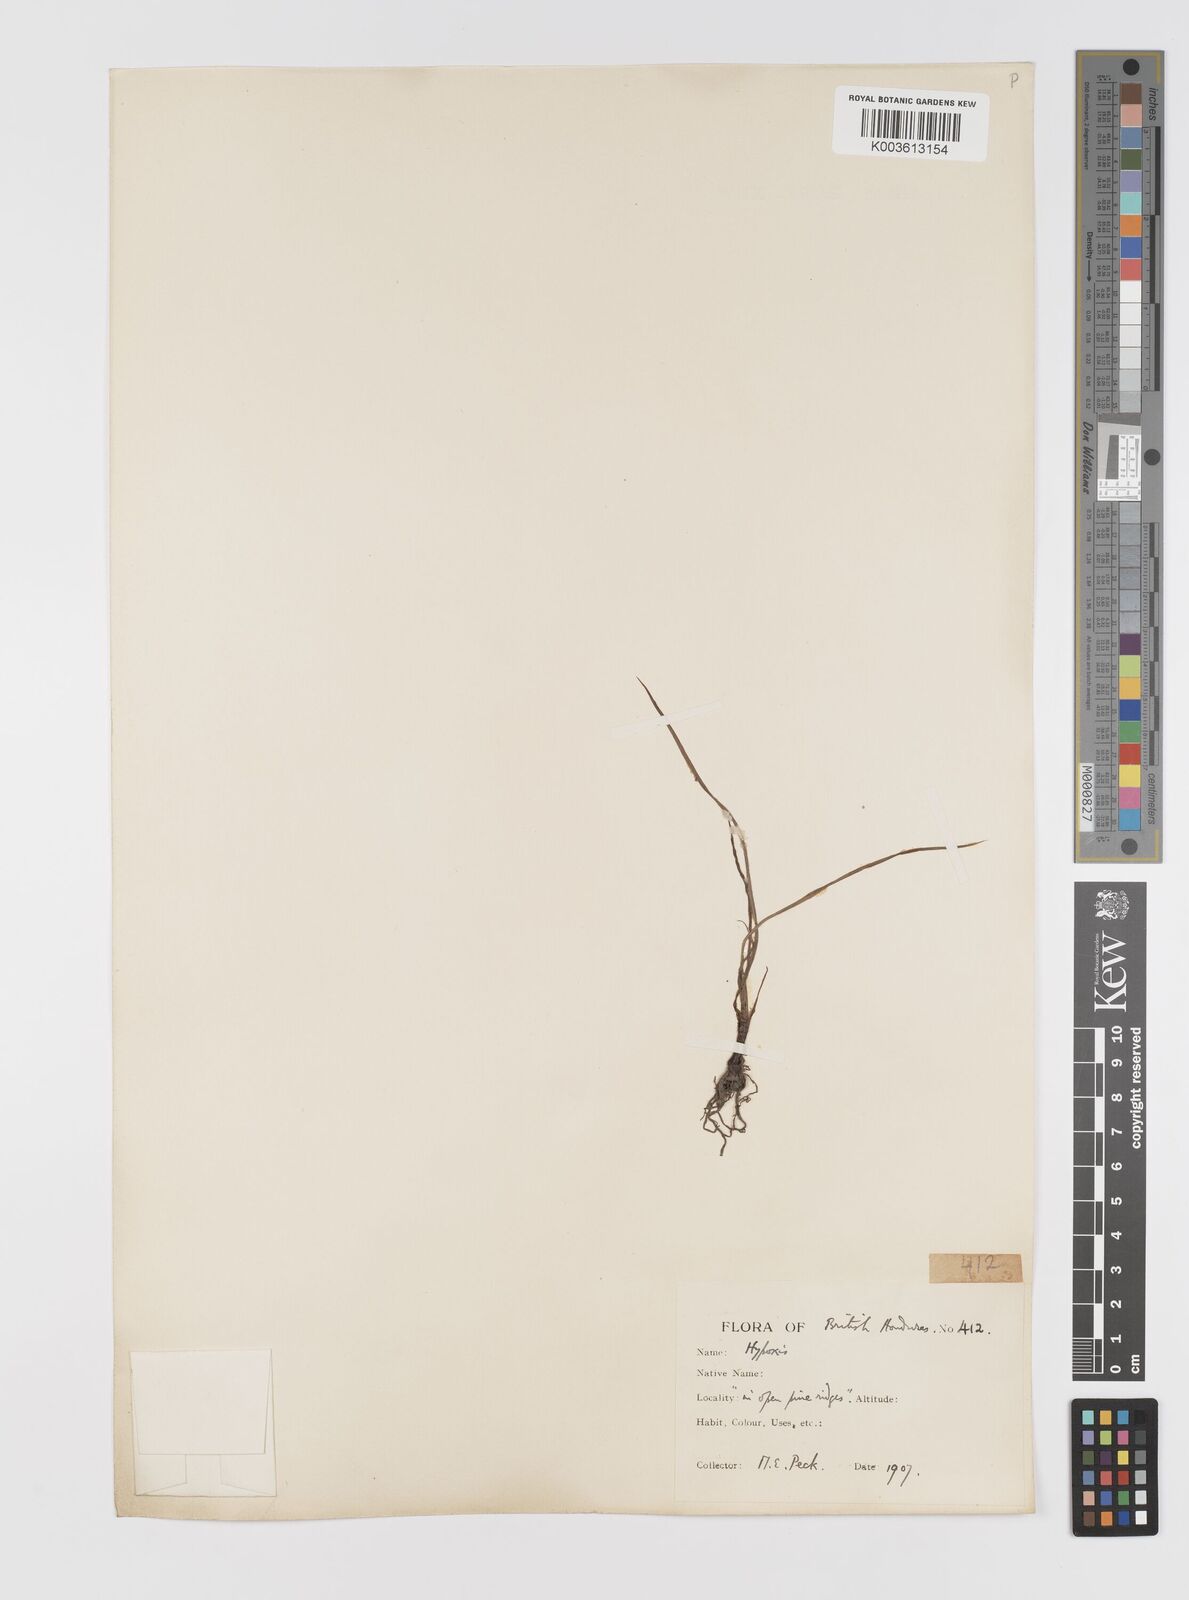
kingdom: Plantae
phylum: Tracheophyta
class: Liliopsida
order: Asparagales
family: Hypoxidaceae
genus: Hypoxis
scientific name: Hypoxis decumbens
